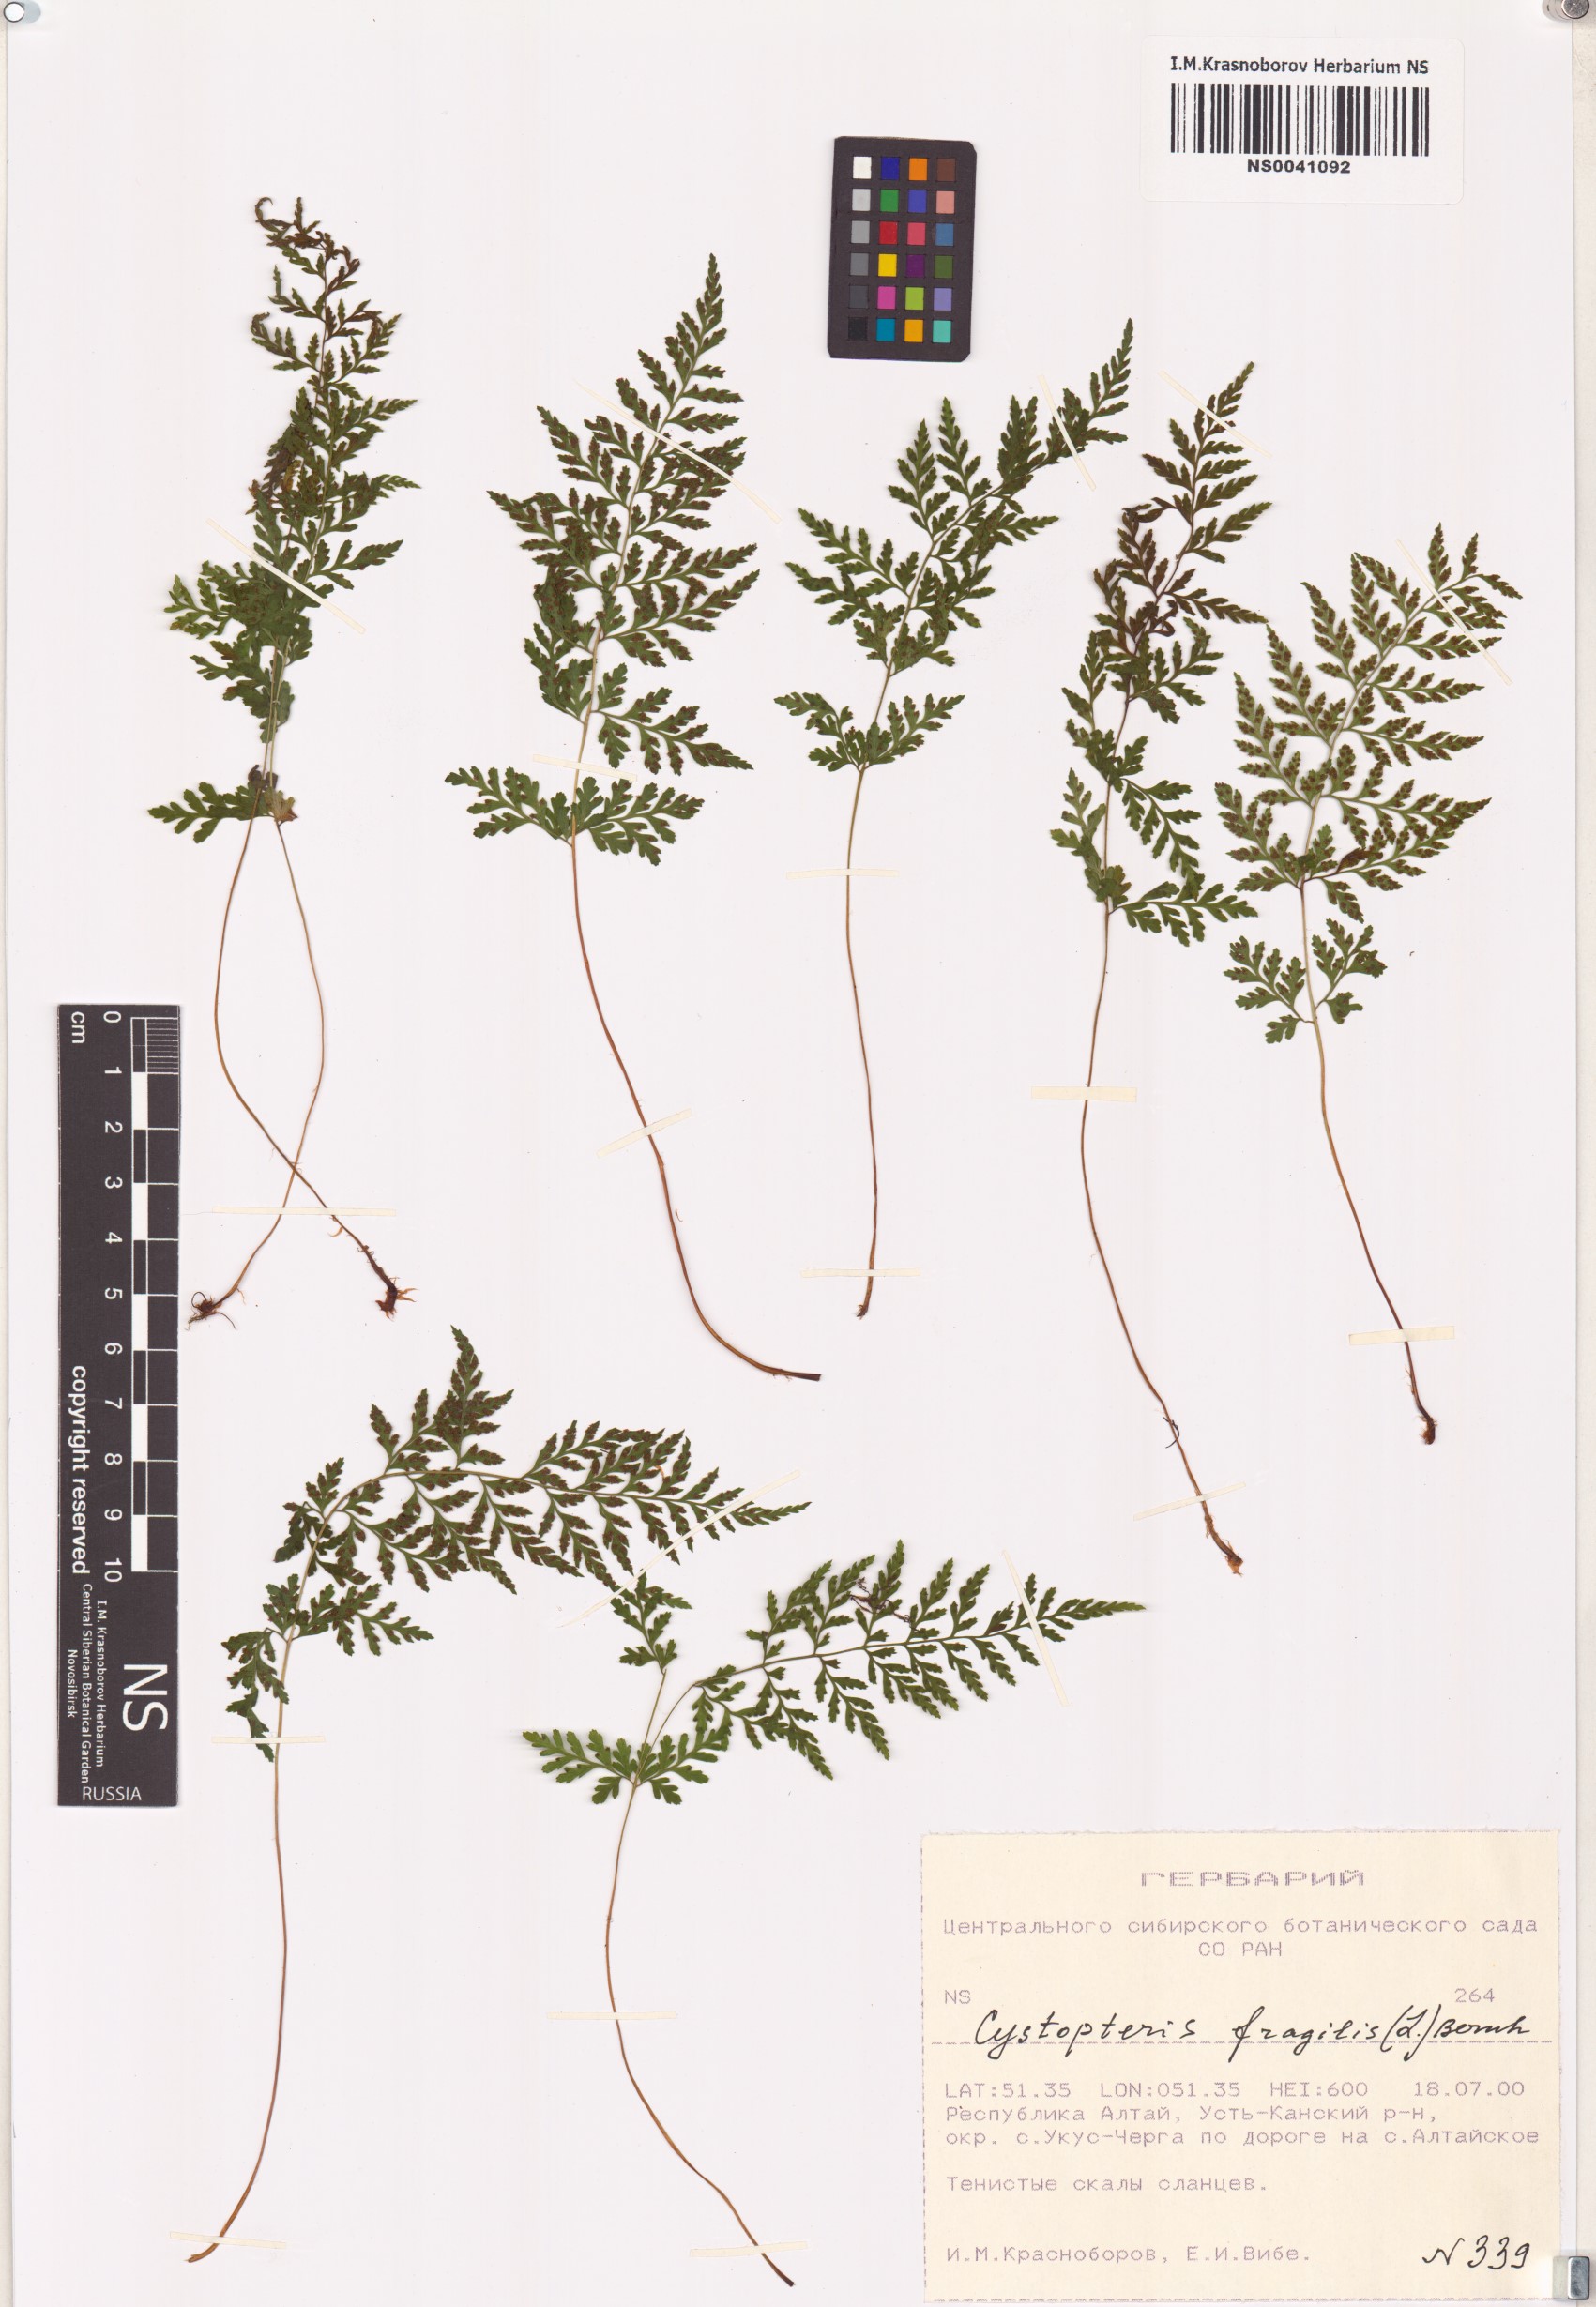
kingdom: Plantae
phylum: Tracheophyta
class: Polypodiopsida
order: Polypodiales
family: Cystopteridaceae
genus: Cystopteris
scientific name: Cystopteris fragilis
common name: Brittle bladder fern
